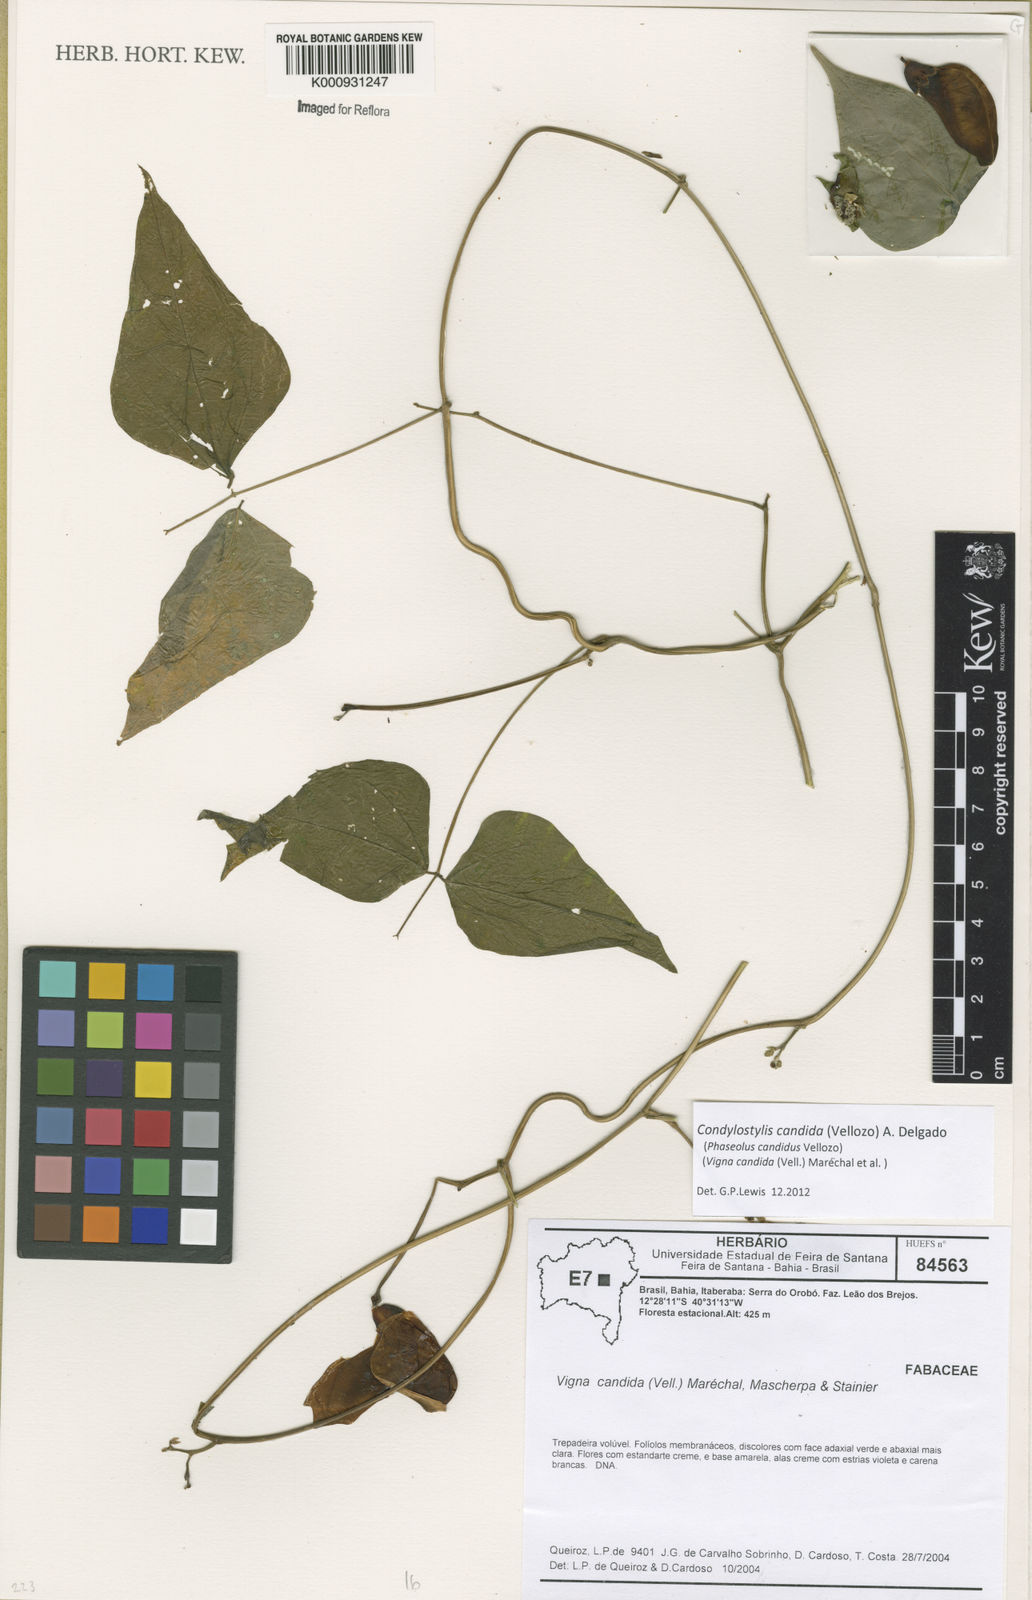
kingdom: Plantae
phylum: Tracheophyta
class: Magnoliopsida
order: Fabales
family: Fabaceae
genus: Condylostylis
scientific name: Condylostylis candida
